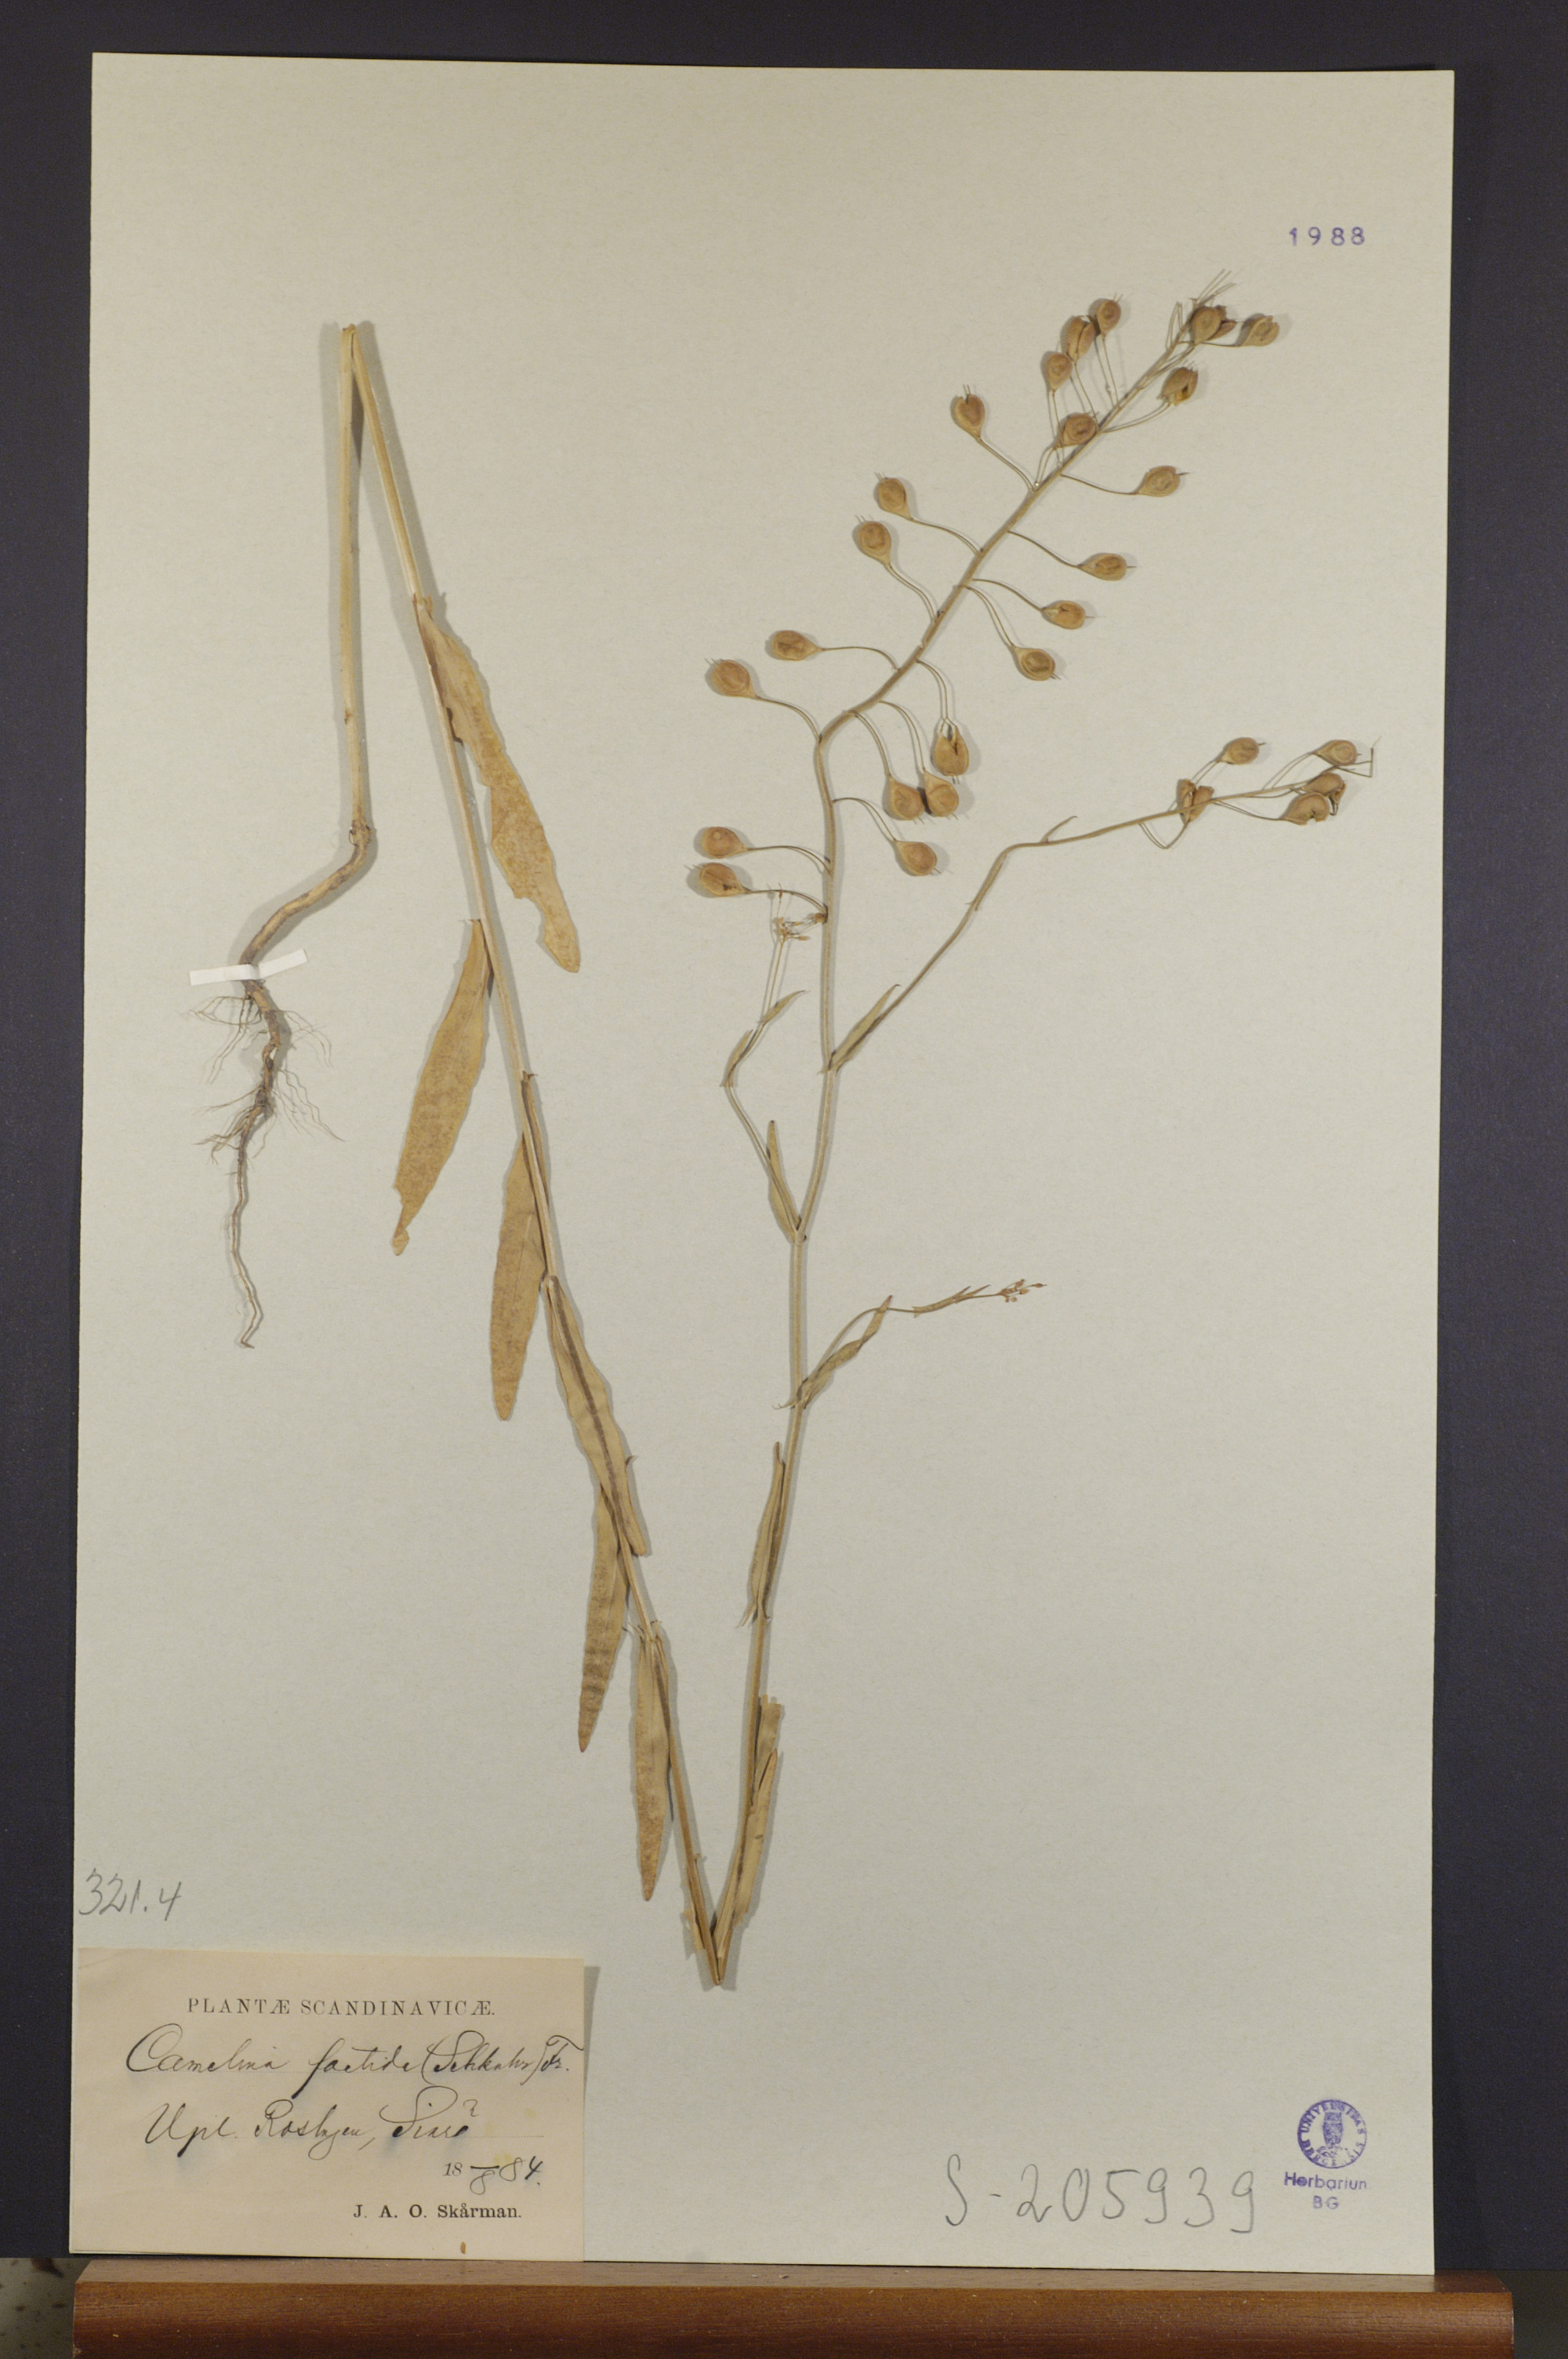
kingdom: Plantae
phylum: Tracheophyta
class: Magnoliopsida
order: Brassicales
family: Brassicaceae
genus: Camelina
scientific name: Camelina alyssum
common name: Gold-of-pleasure
